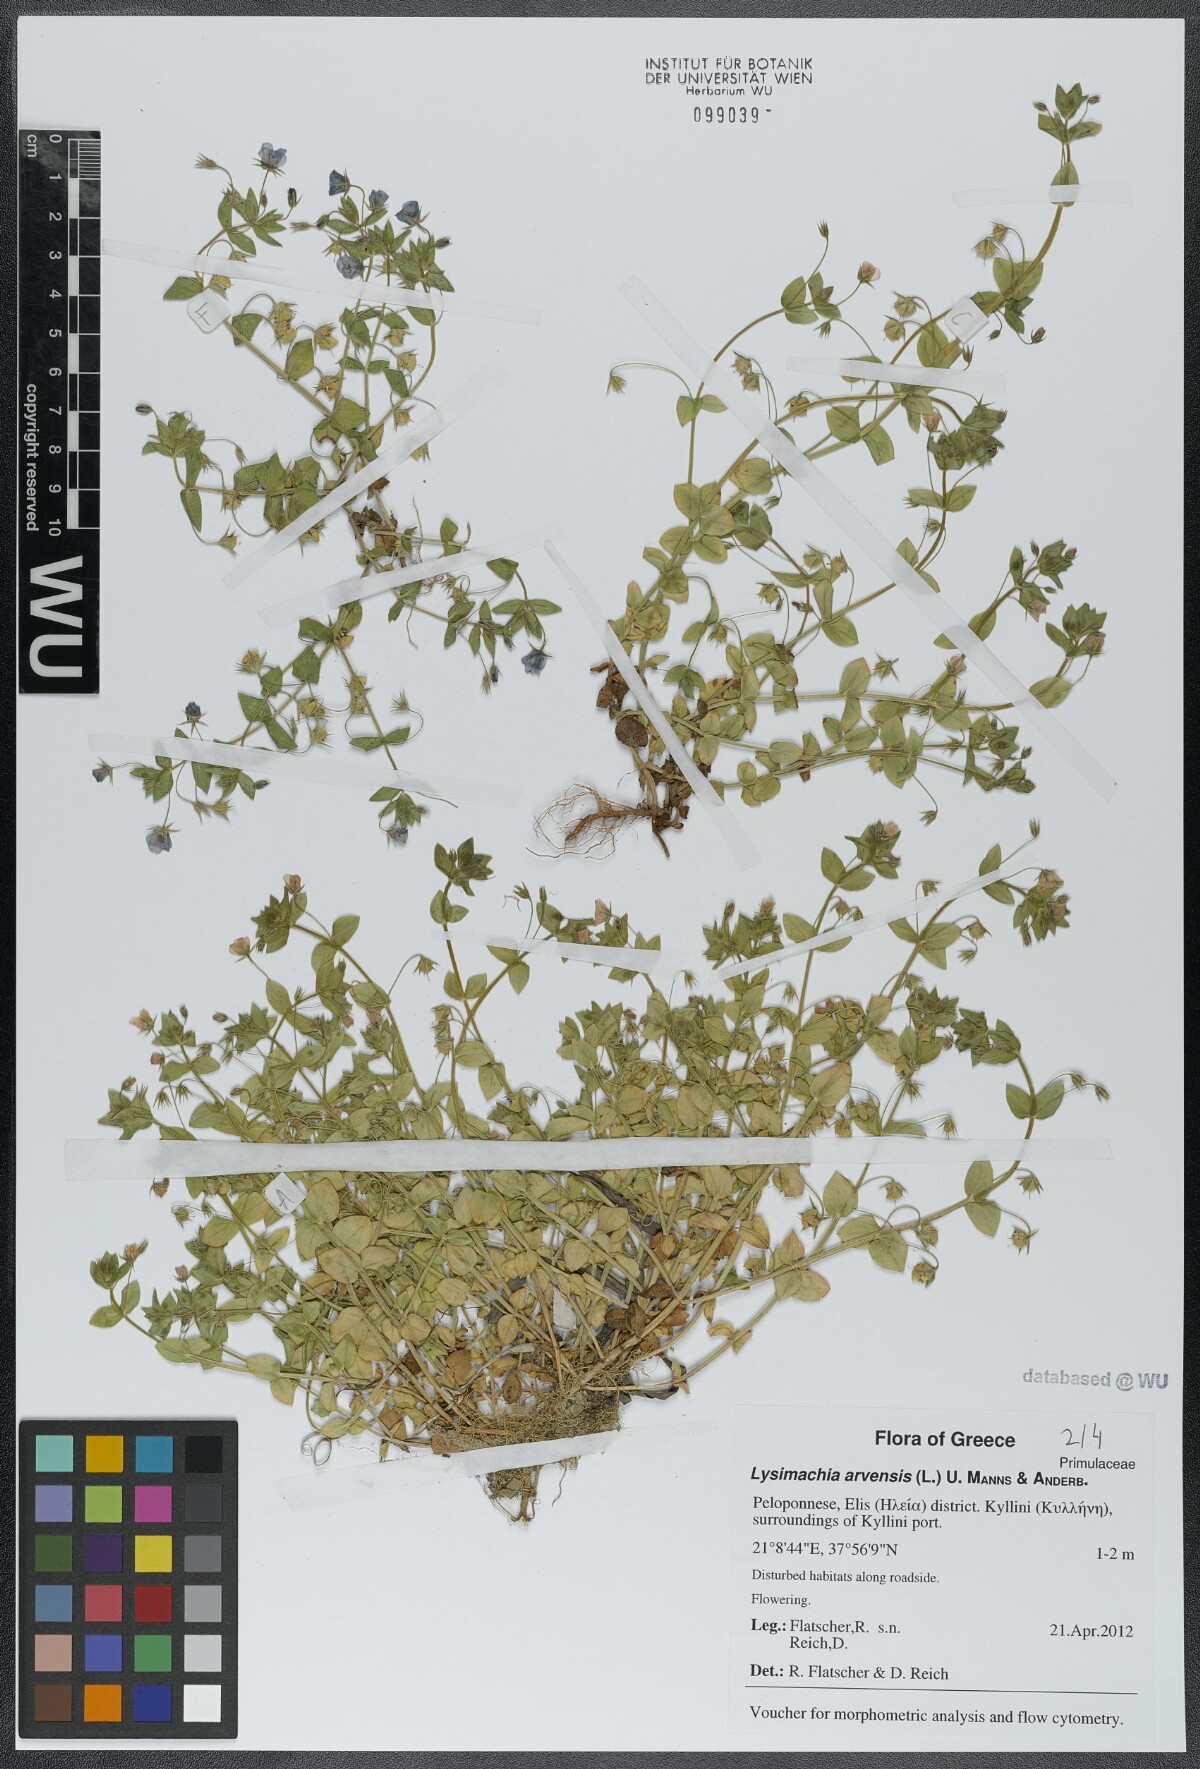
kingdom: Plantae
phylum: Tracheophyta
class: Magnoliopsida
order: Ericales
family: Primulaceae
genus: Lysimachia
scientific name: Lysimachia arvensis
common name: Scarlet pimpernel
